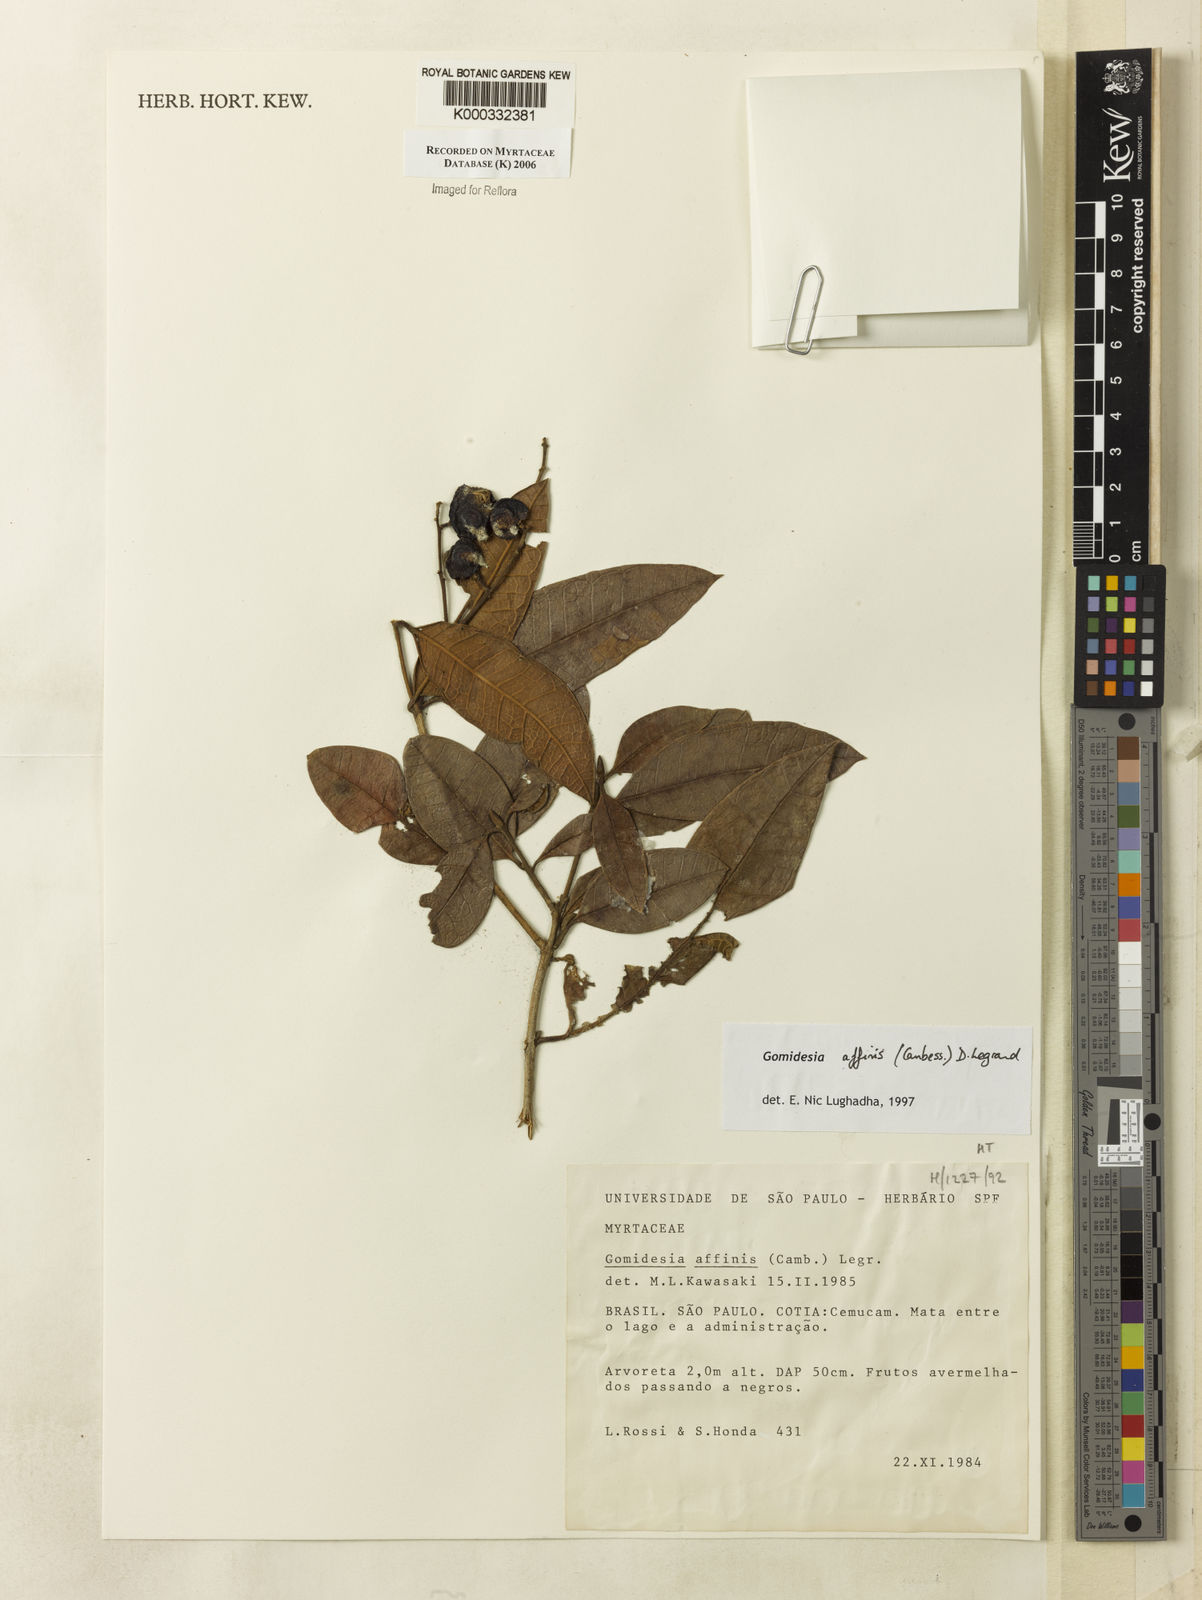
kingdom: Plantae
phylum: Tracheophyta
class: Magnoliopsida
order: Myrtales
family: Myrtaceae
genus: Myrcia
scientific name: Myrcia hebepetala
